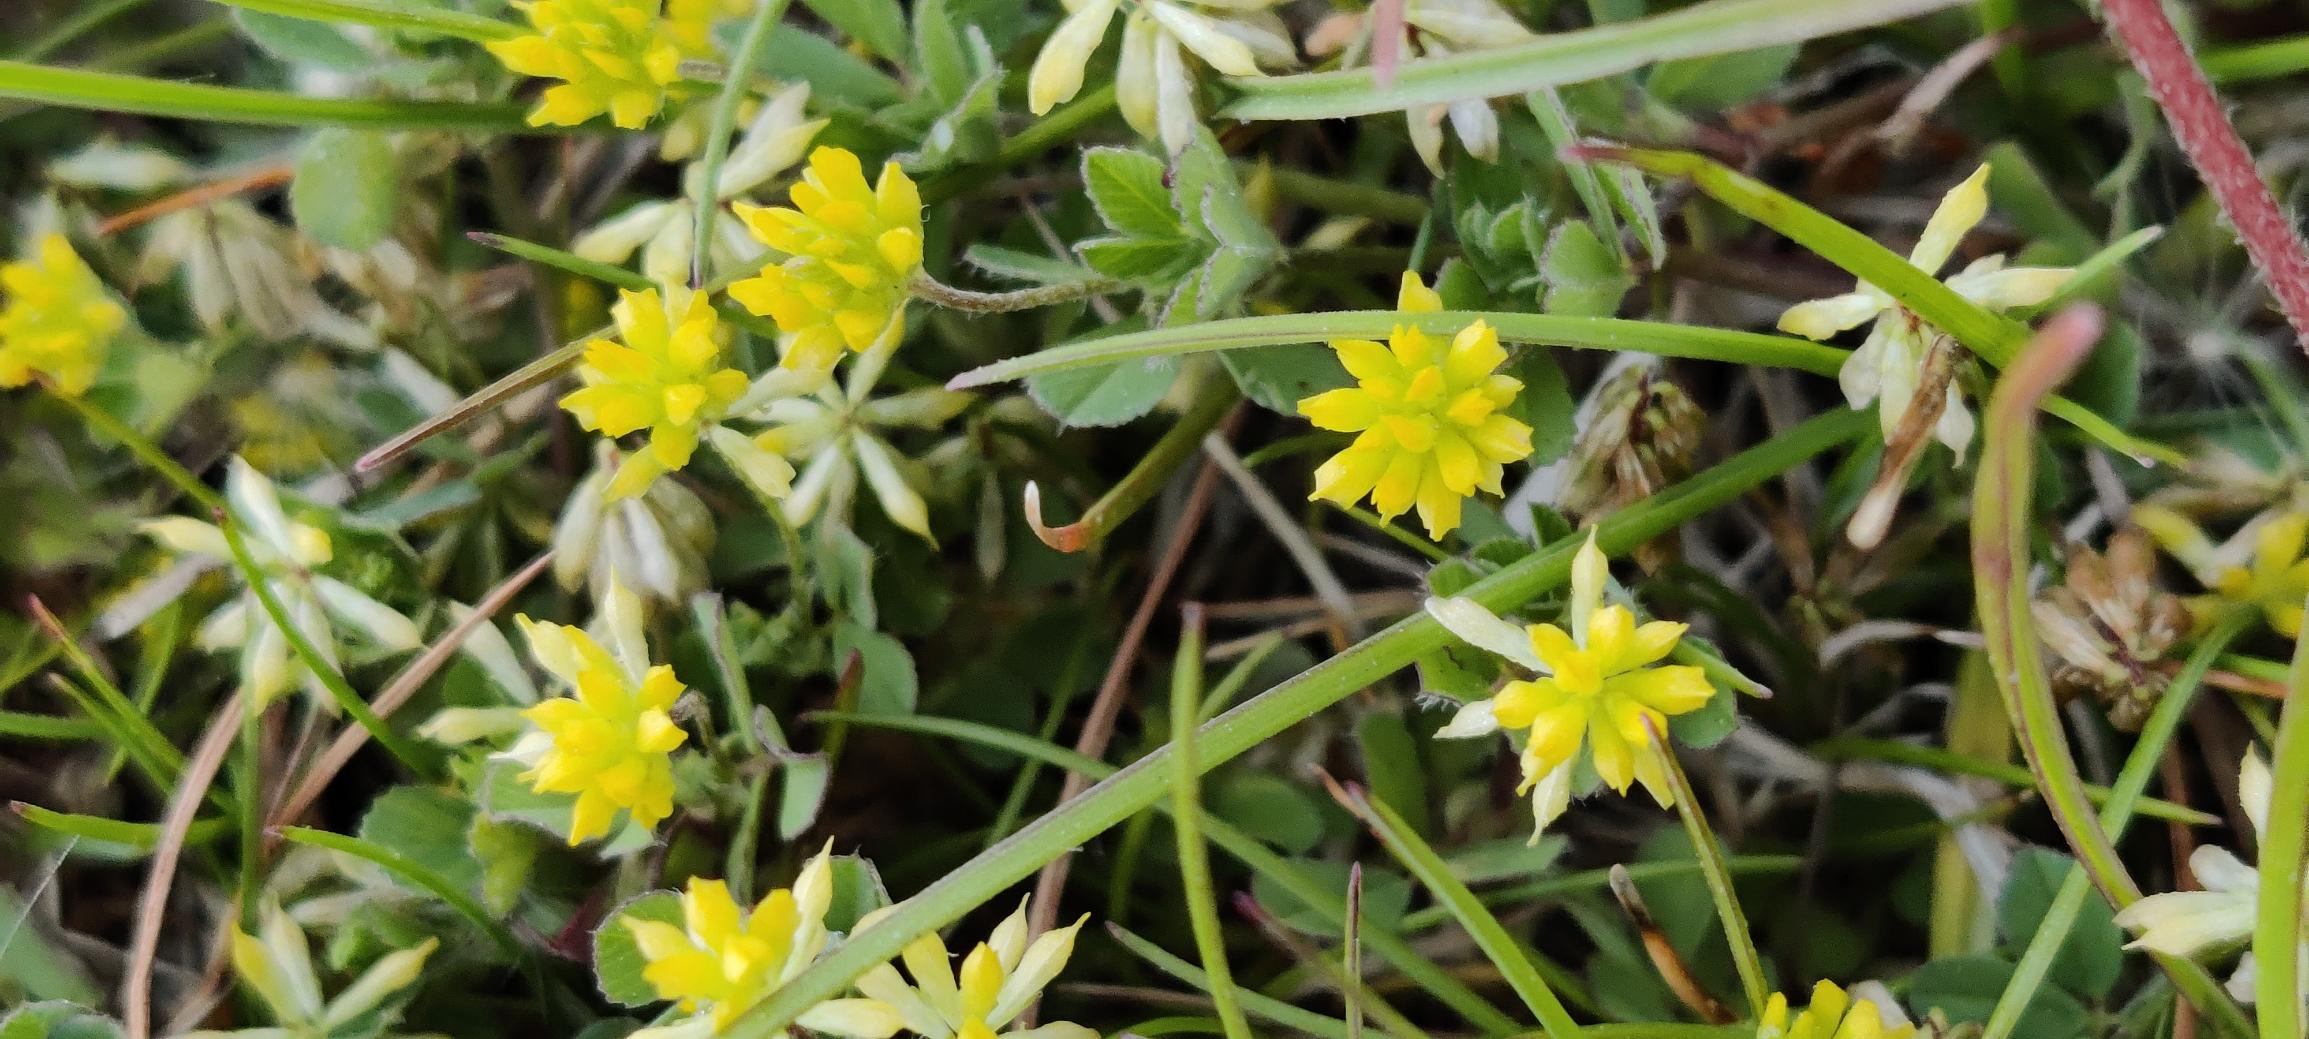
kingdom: Plantae
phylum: Tracheophyta
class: Magnoliopsida
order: Fabales
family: Fabaceae
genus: Trifolium
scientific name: Trifolium dubium
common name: Fin kløver
